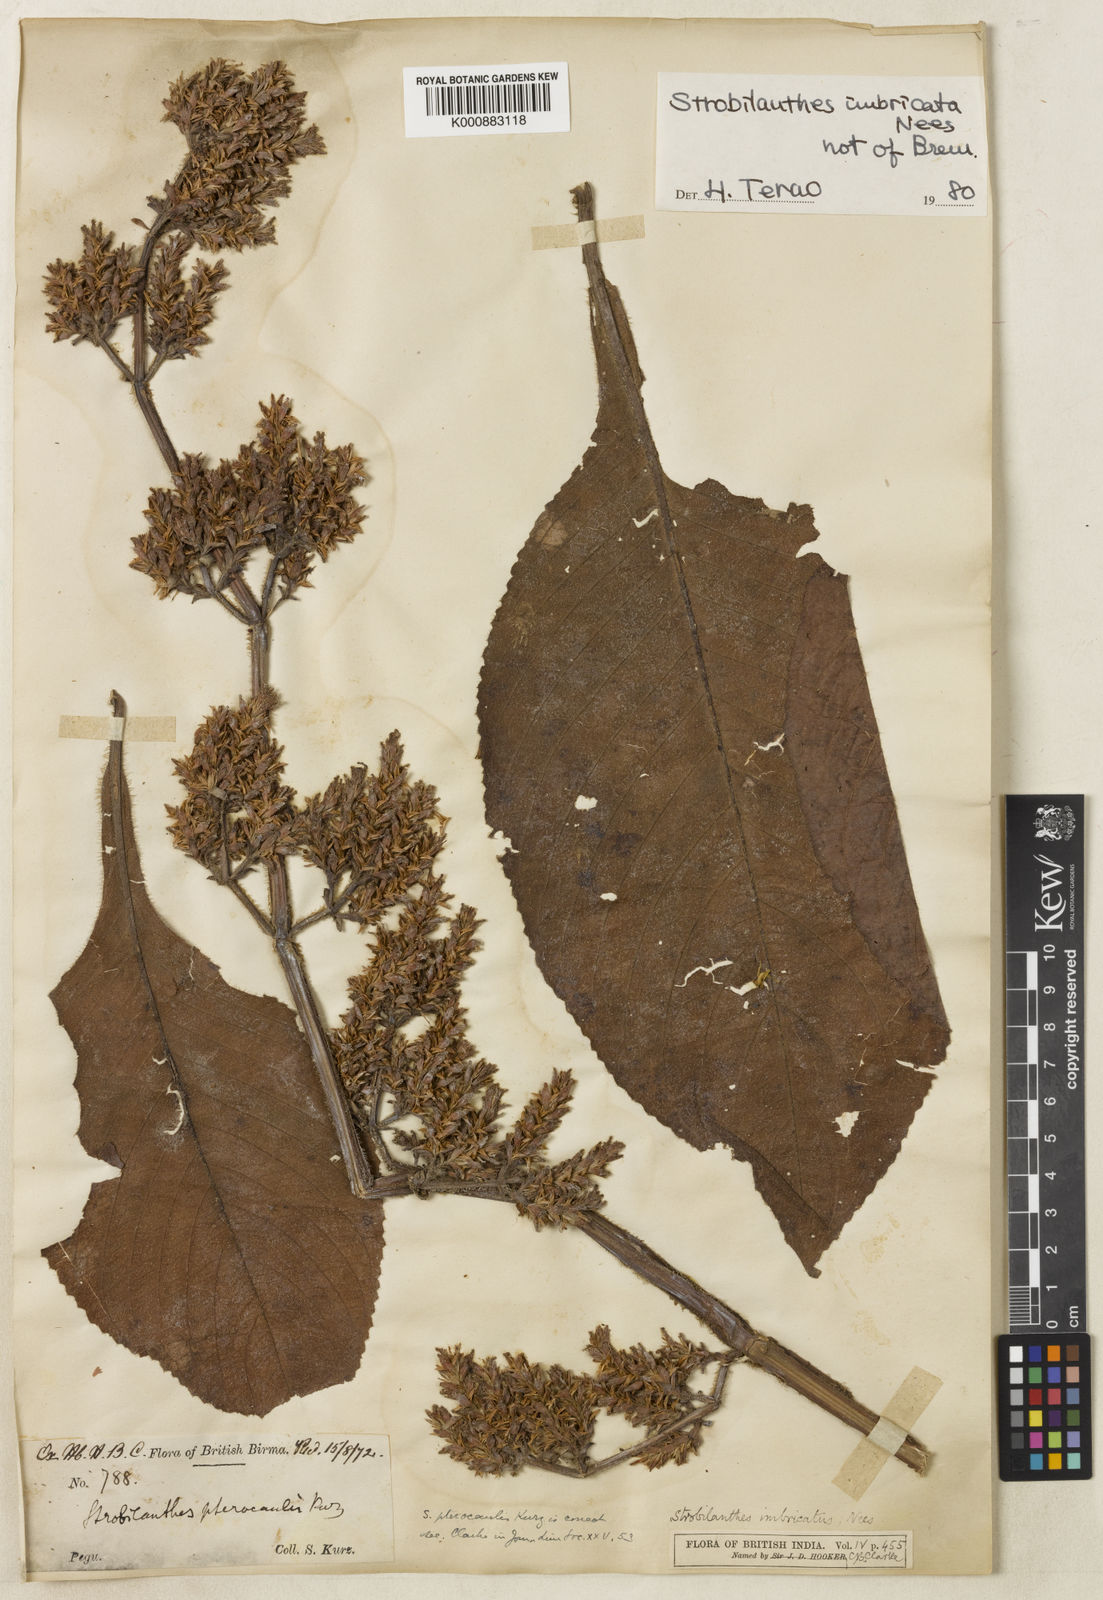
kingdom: Plantae
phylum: Tracheophyta
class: Magnoliopsida
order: Lamiales
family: Acanthaceae
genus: Strobilanthes
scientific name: Strobilanthes imbricata
